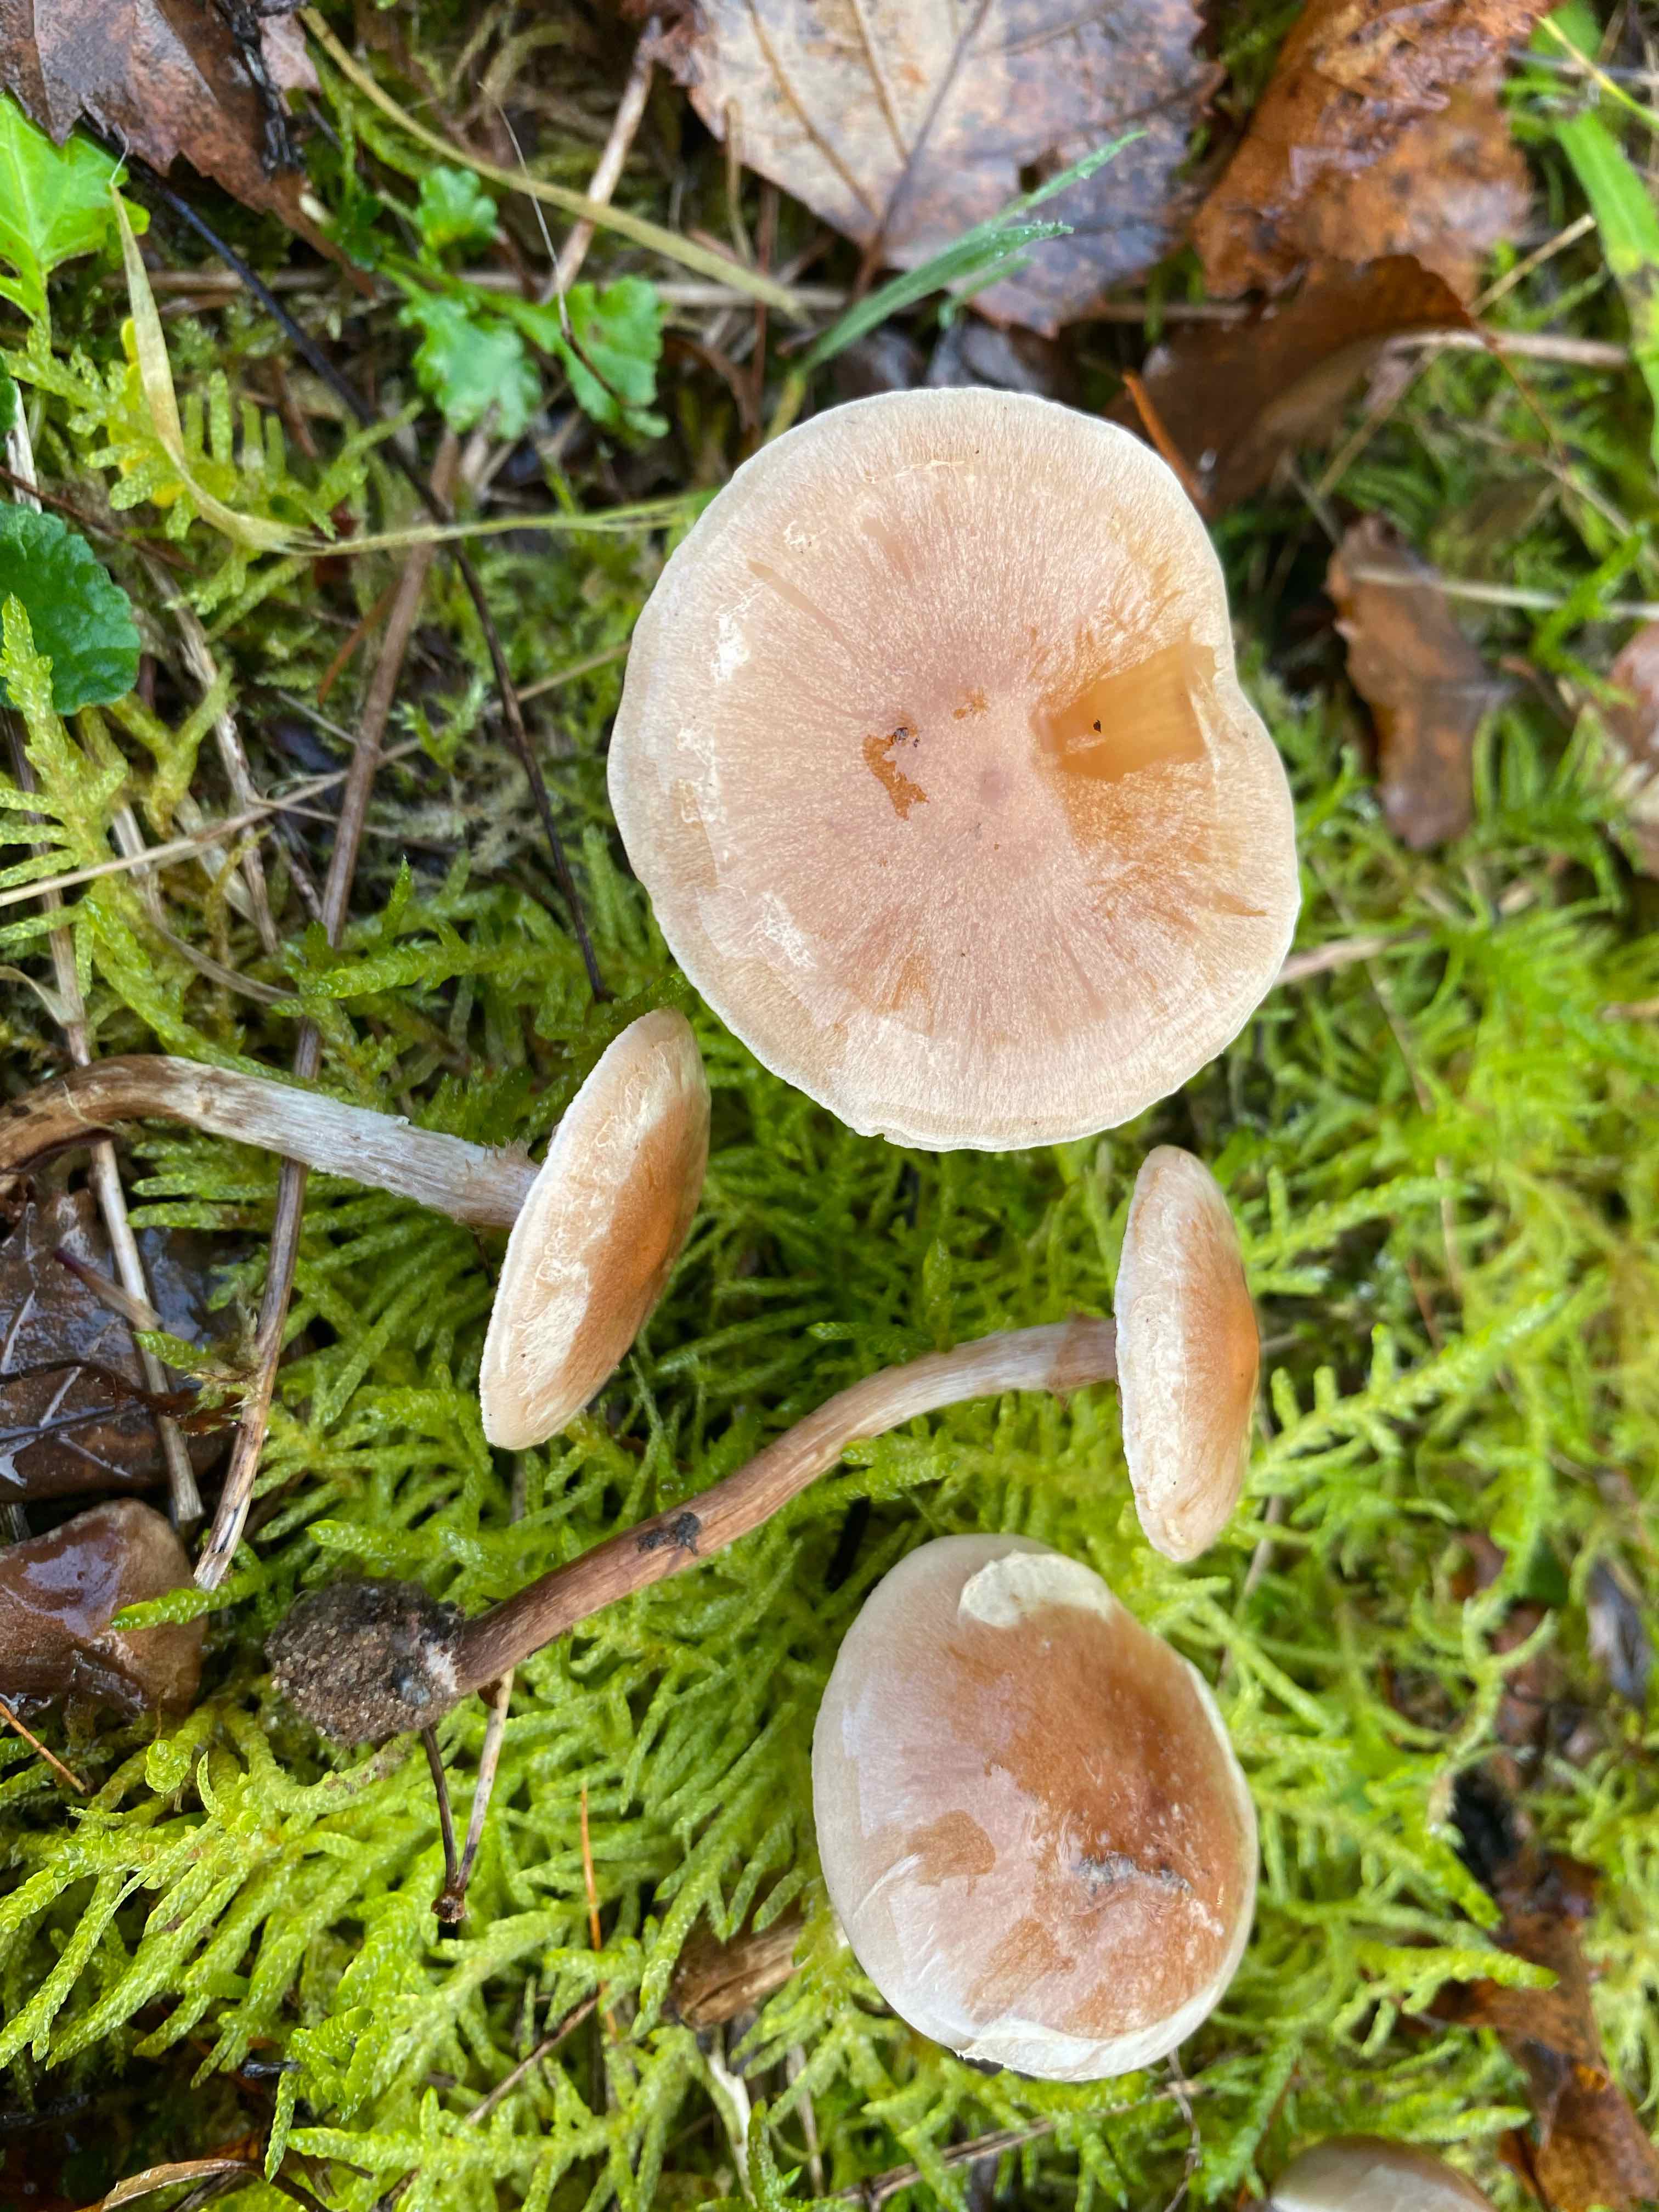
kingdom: Fungi
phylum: Basidiomycota
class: Agaricomycetes
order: Agaricales
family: Hymenogastraceae
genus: Hebeloma
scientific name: Hebeloma mesophaeum
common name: lerbrun tåreblad
